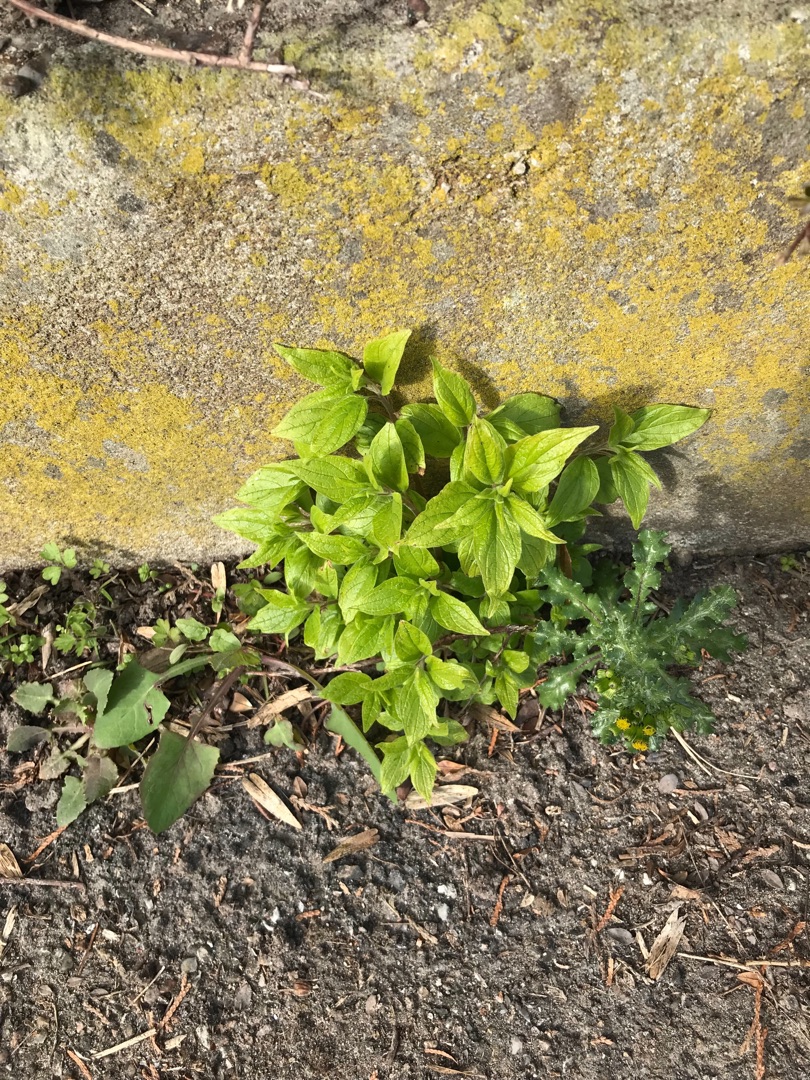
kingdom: Plantae
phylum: Tracheophyta
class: Magnoliopsida
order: Rosales
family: Urticaceae
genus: Parietaria
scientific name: Parietaria officinalis
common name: Almindelig springknap
